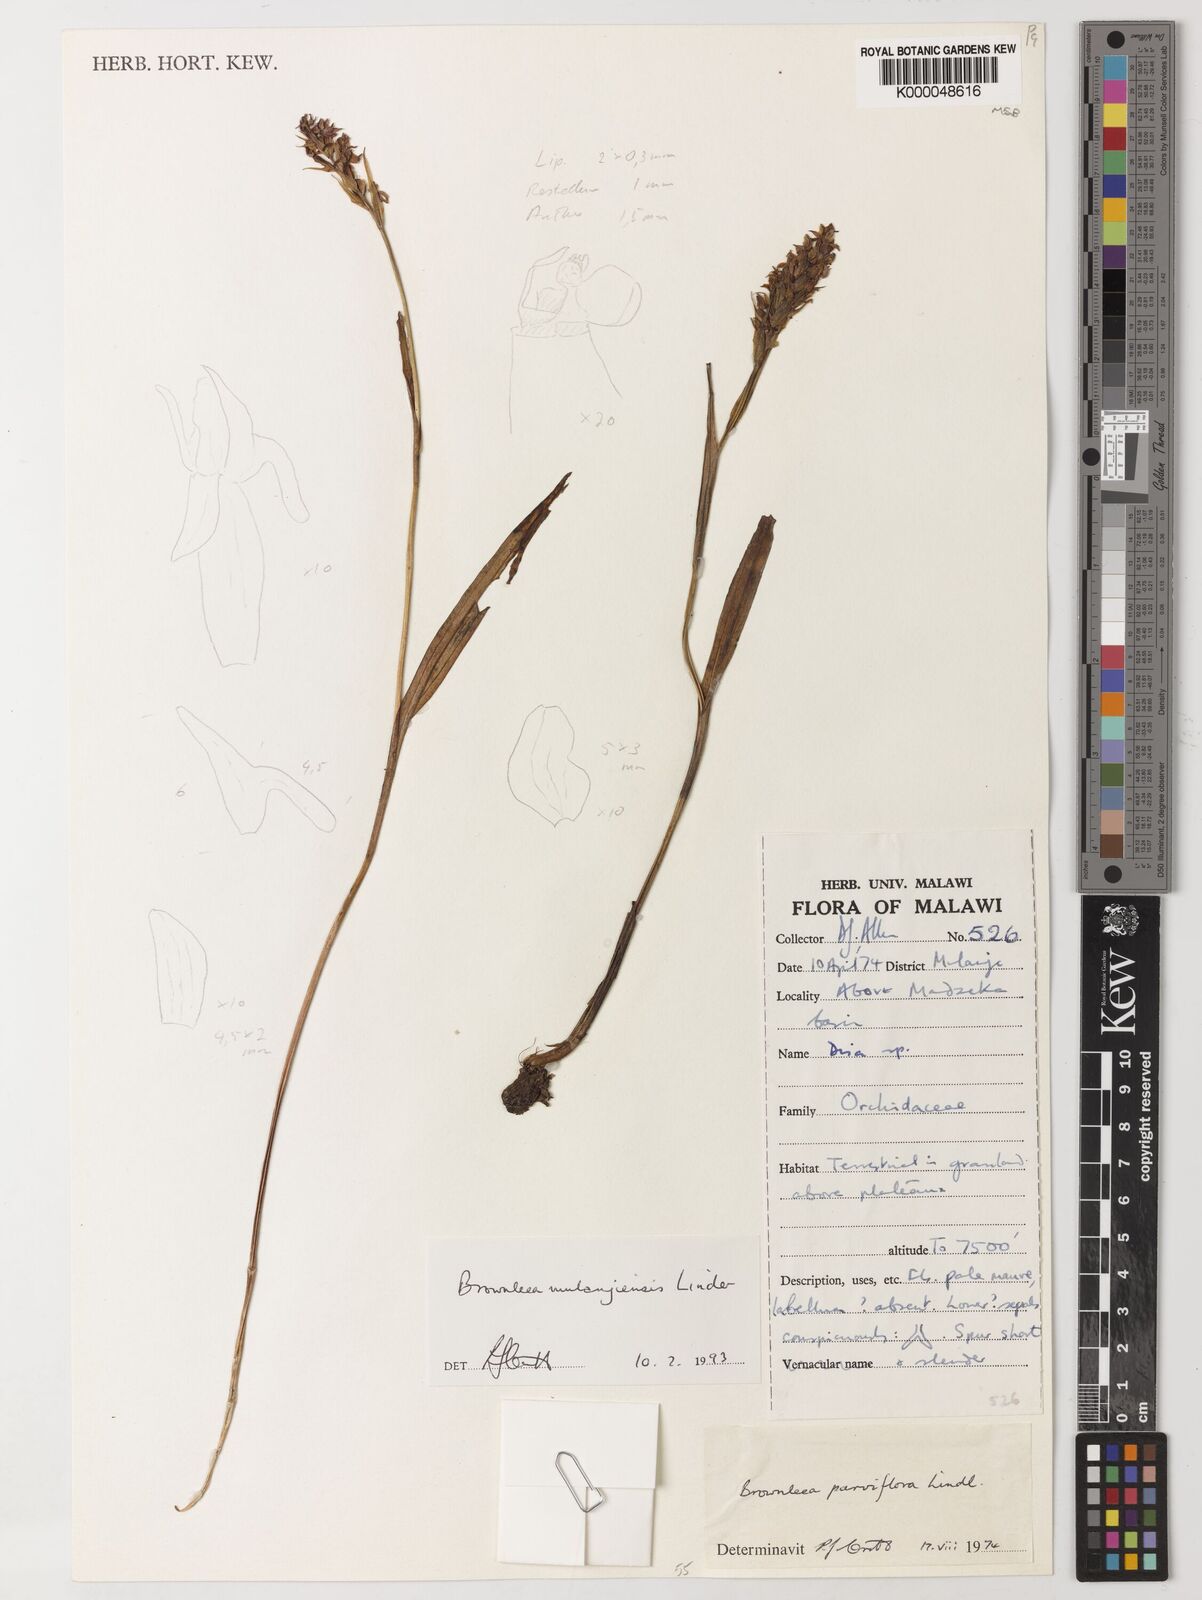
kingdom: Plantae
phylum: Tracheophyta
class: Liliopsida
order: Asparagales
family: Orchidaceae
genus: Brownleea
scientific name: Brownleea mulanjiensis
